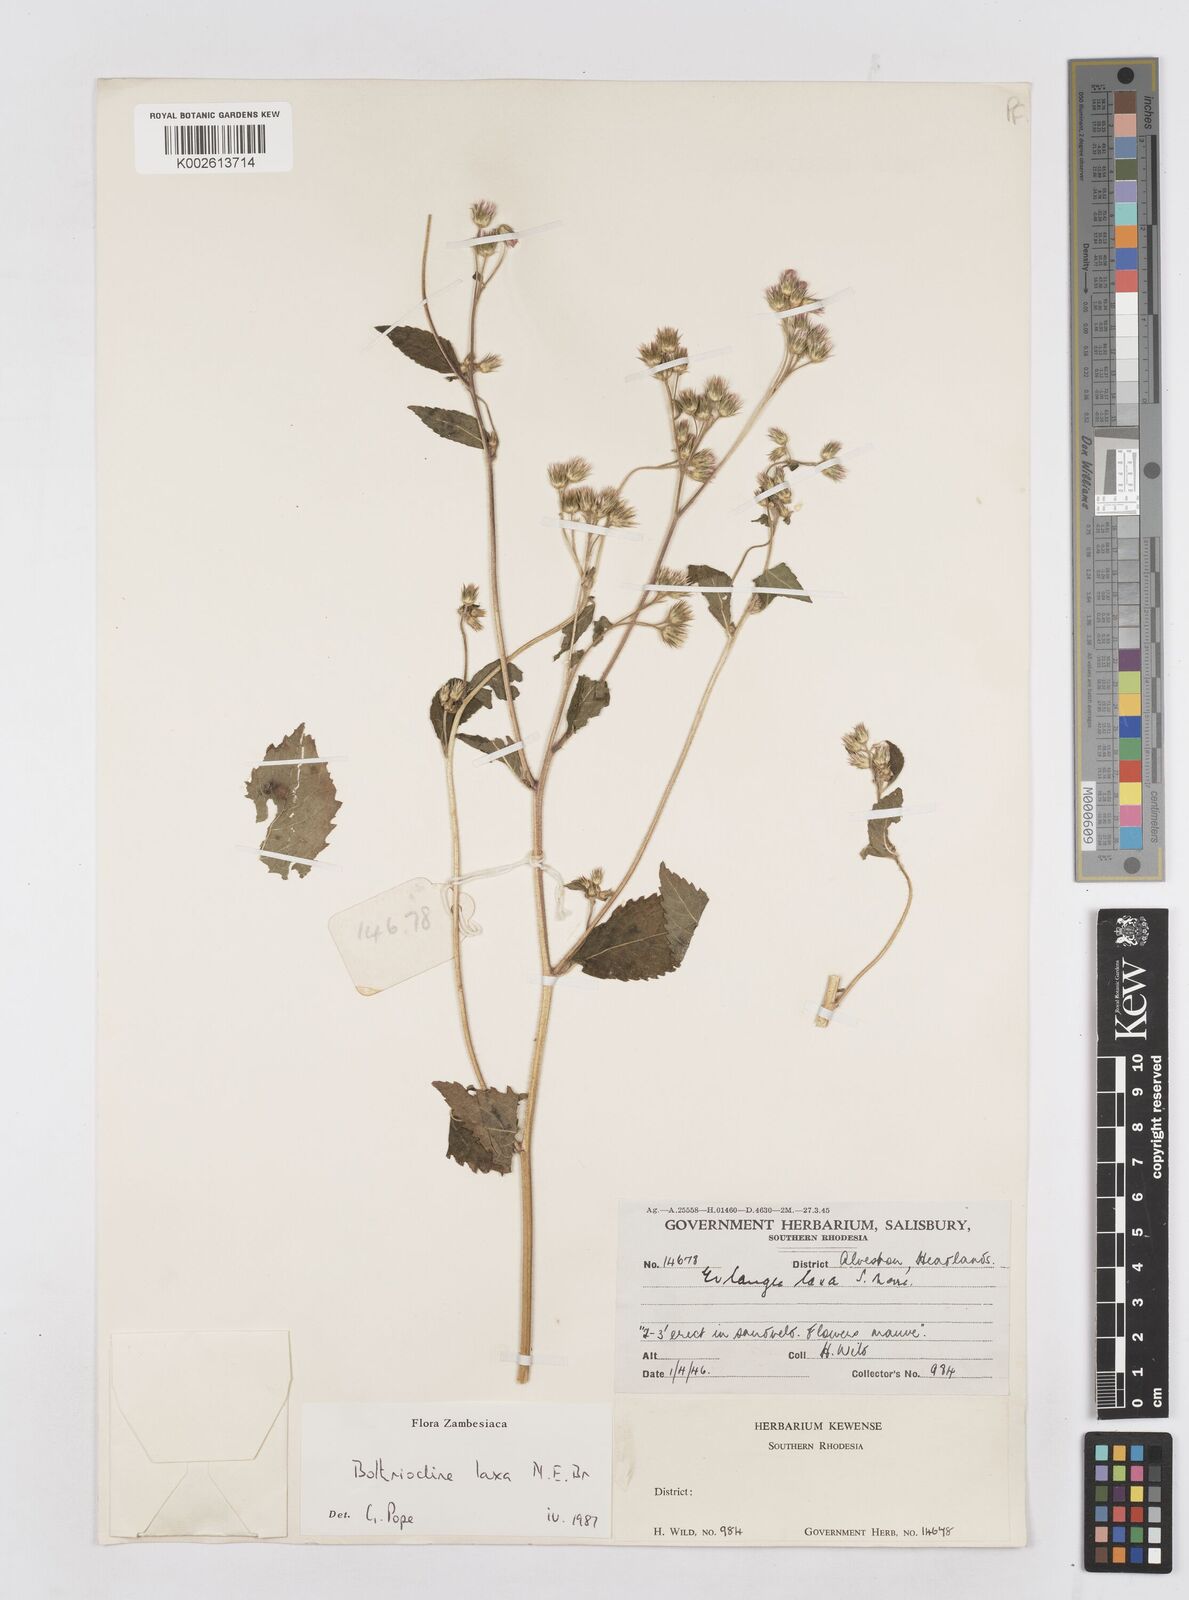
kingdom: Plantae
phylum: Tracheophyta
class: Magnoliopsida
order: Asterales
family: Asteraceae
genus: Bothriocline
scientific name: Bothriocline laxa
